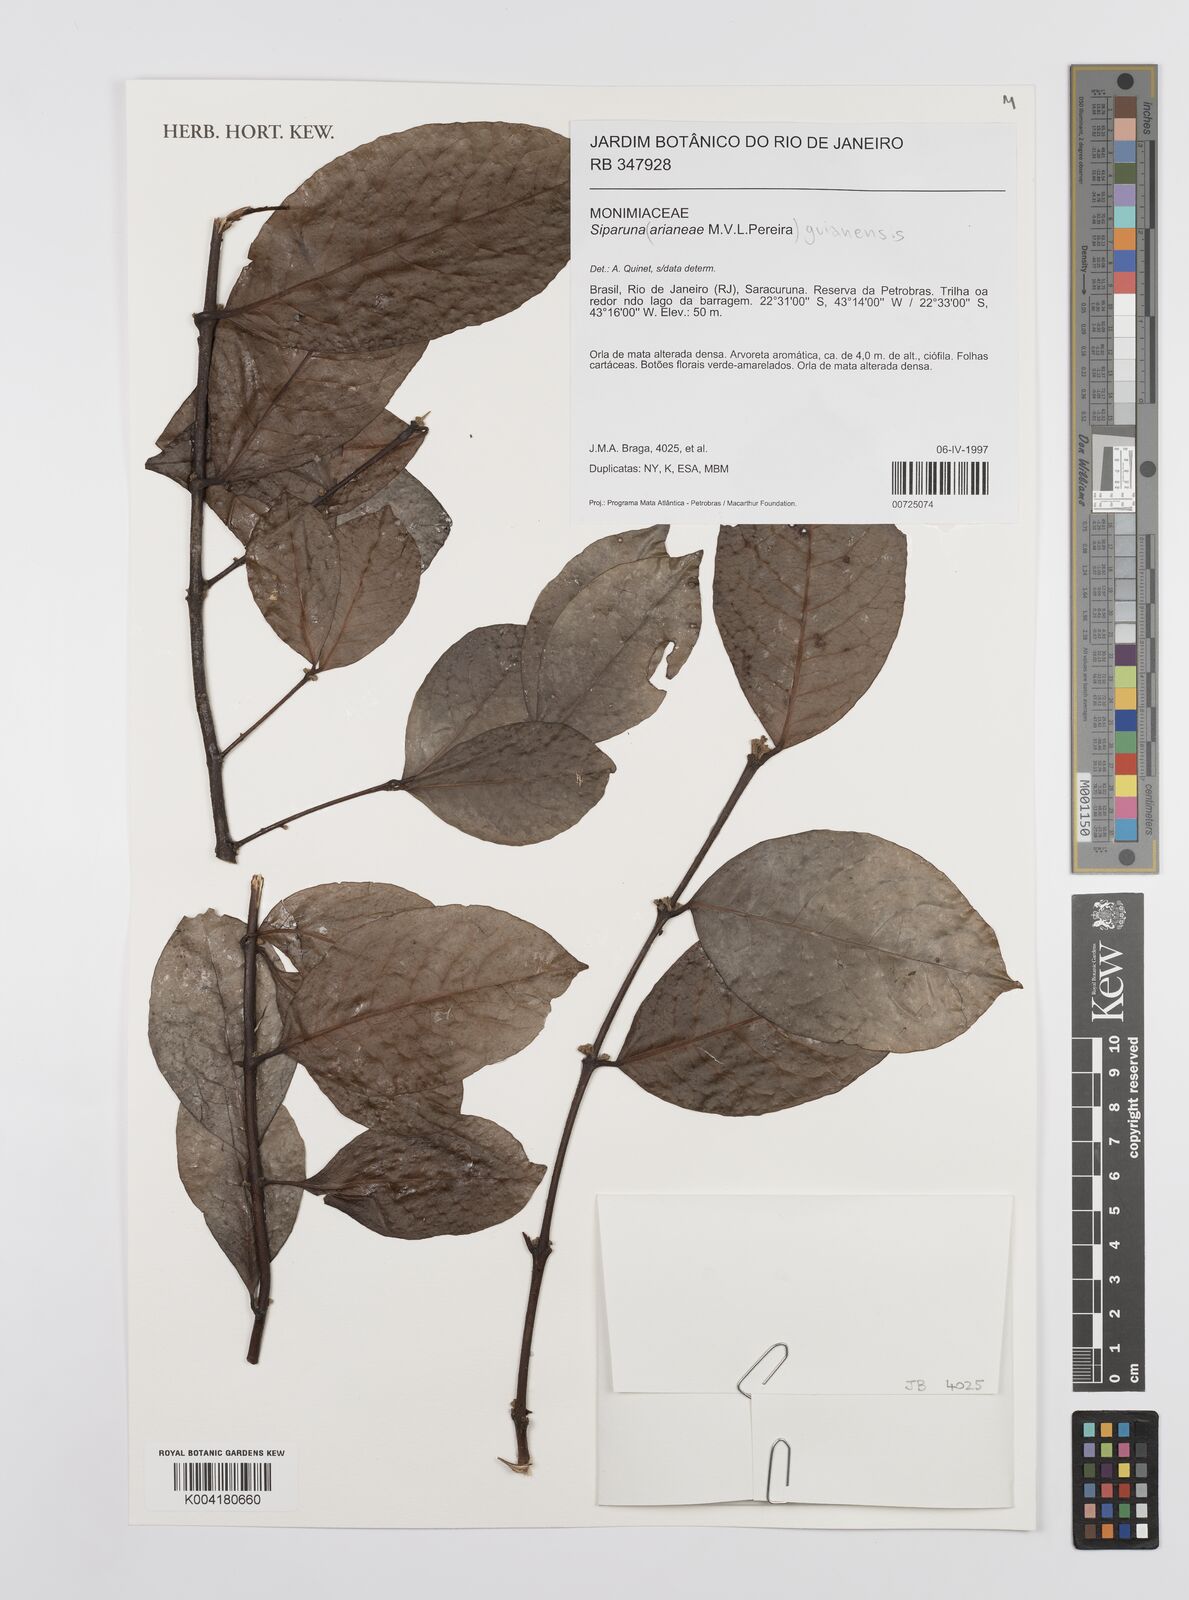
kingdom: Plantae
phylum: Tracheophyta
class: Magnoliopsida
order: Laurales
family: Siparunaceae
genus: Siparuna
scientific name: Siparuna guianensis
